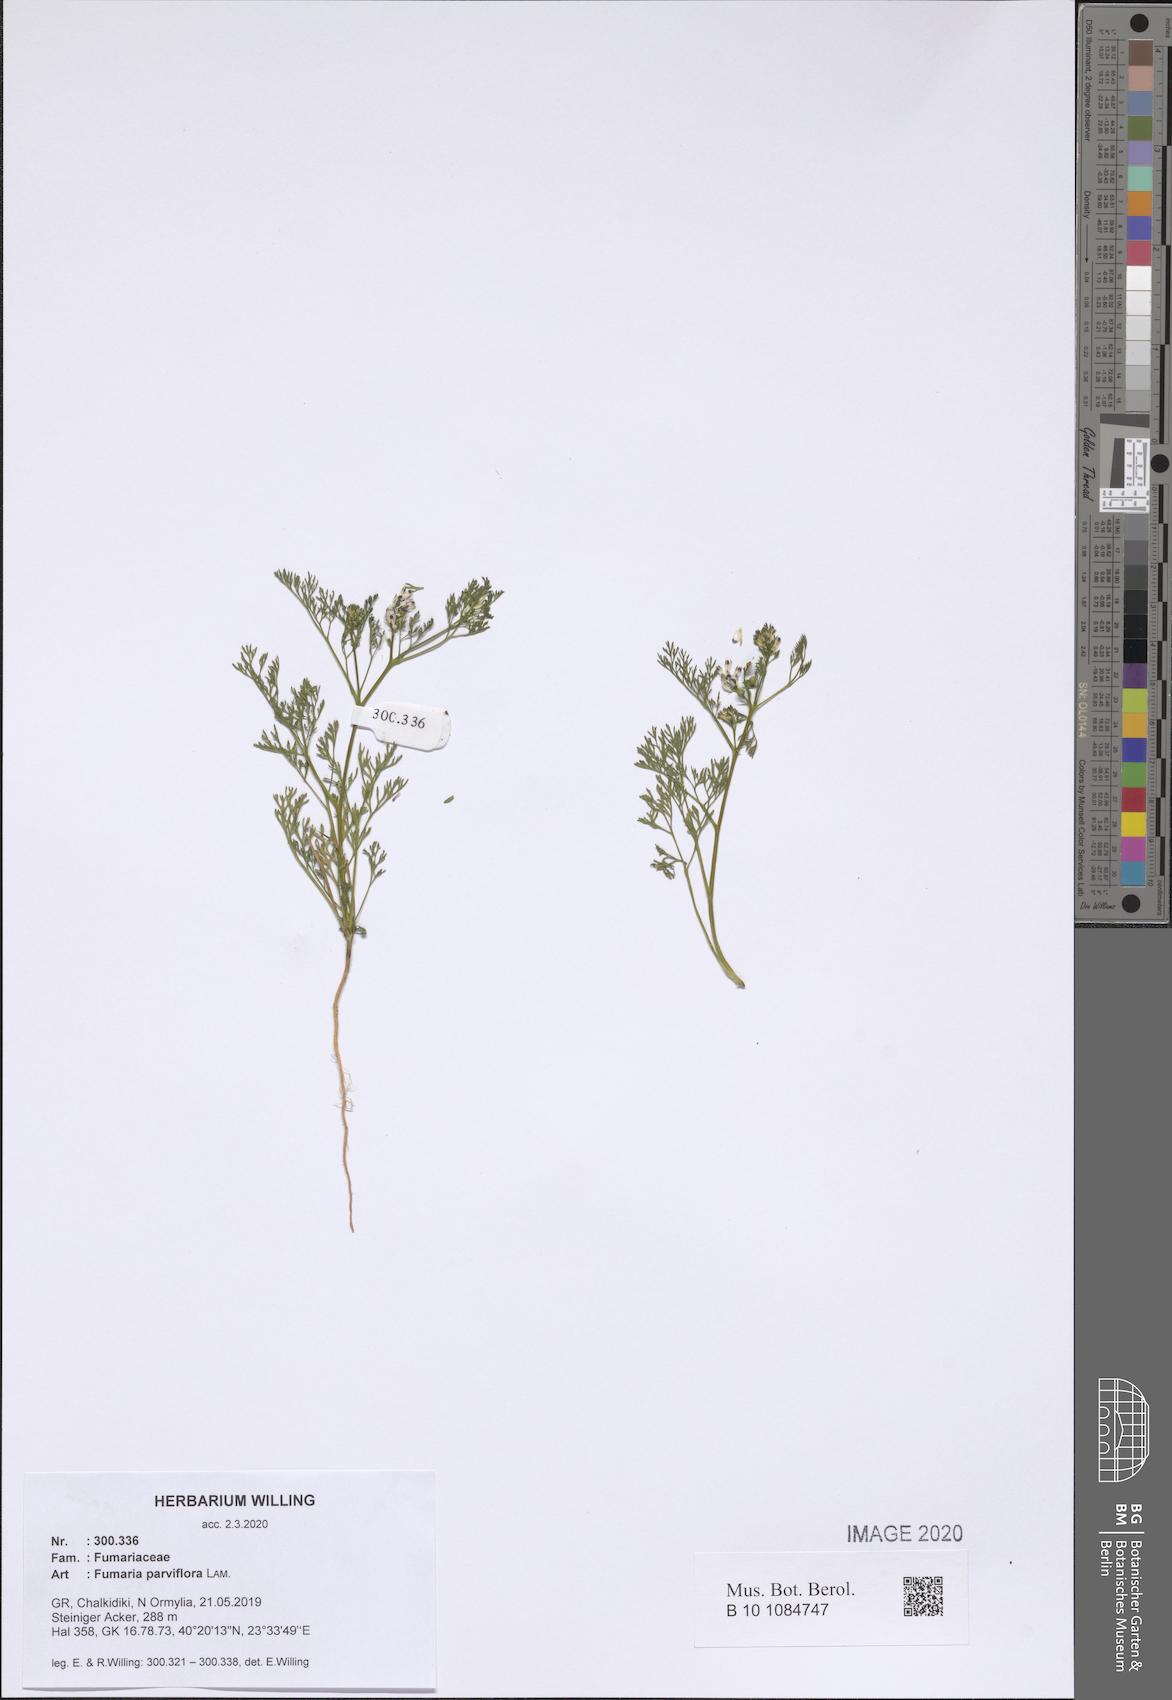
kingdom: Plantae
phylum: Tracheophyta
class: Magnoliopsida
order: Ranunculales
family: Papaveraceae
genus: Fumaria
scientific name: Fumaria parviflora
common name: Fine-leaved fumitory
